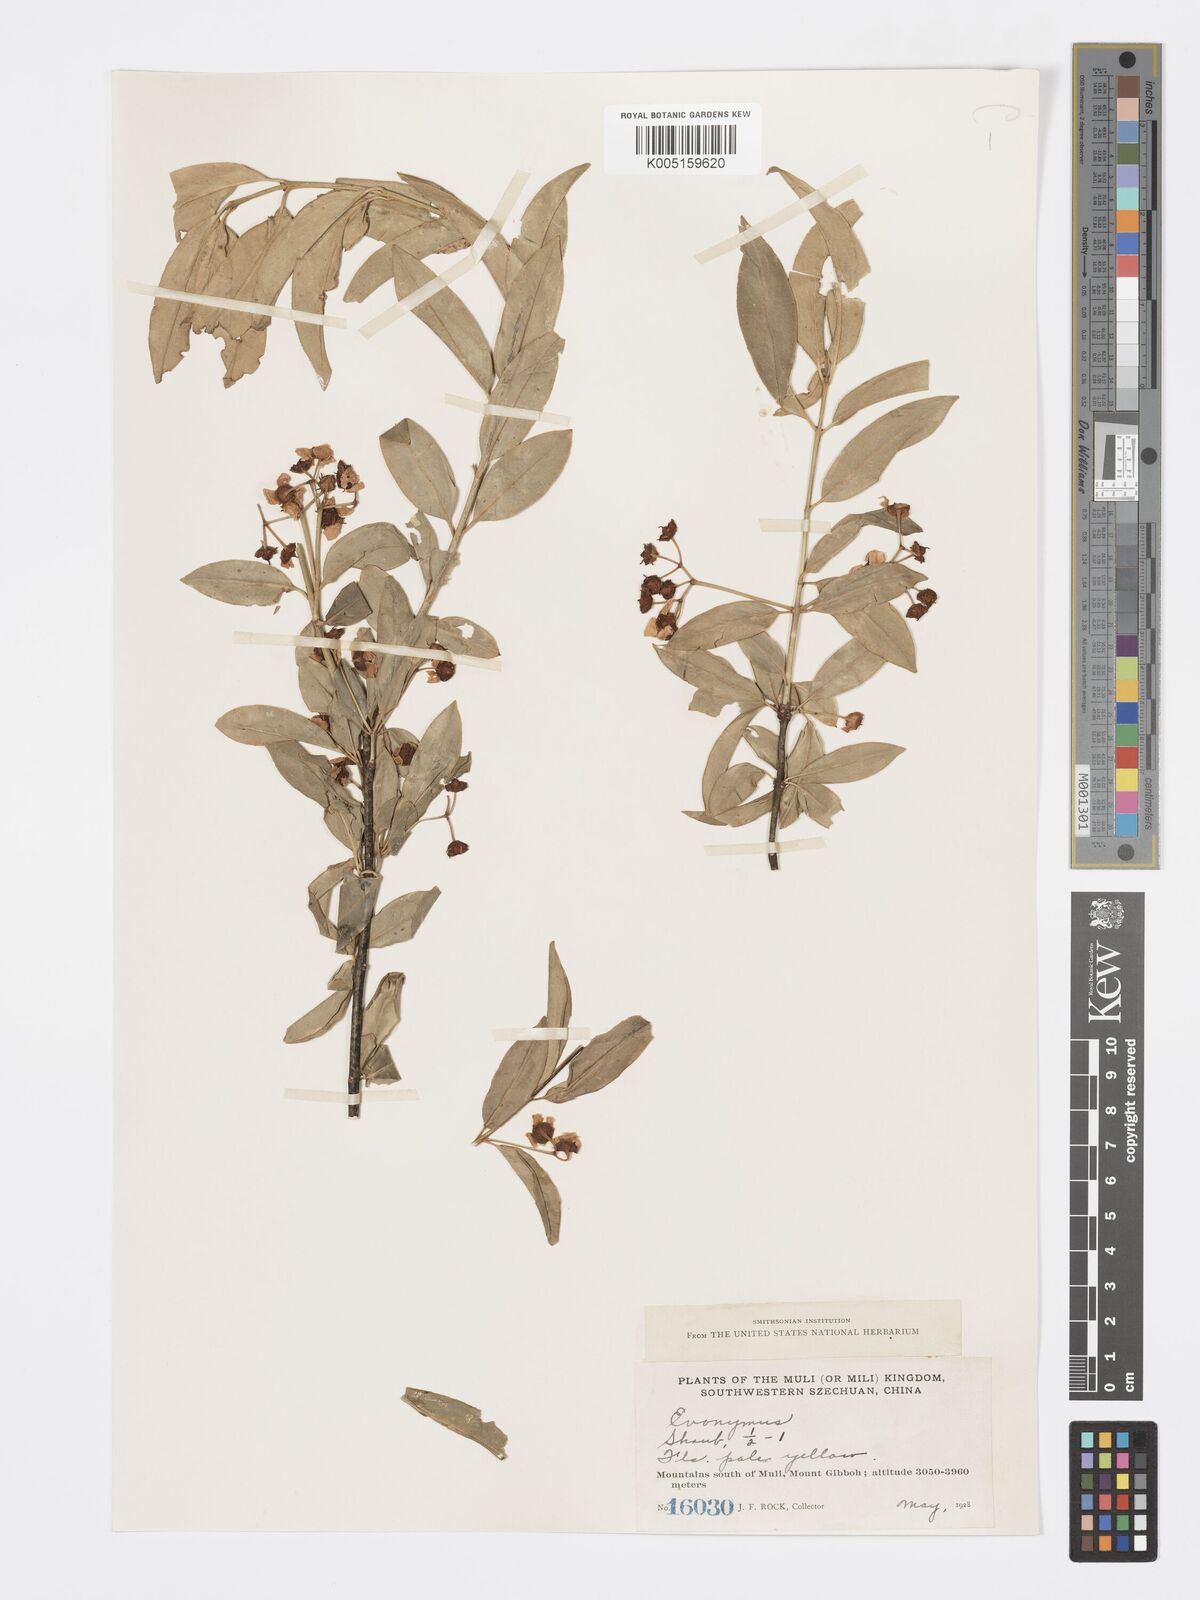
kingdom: Plantae
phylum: Tracheophyta
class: Magnoliopsida
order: Celastrales
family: Celastraceae
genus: Euonymus
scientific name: Euonymus grandiflorus
